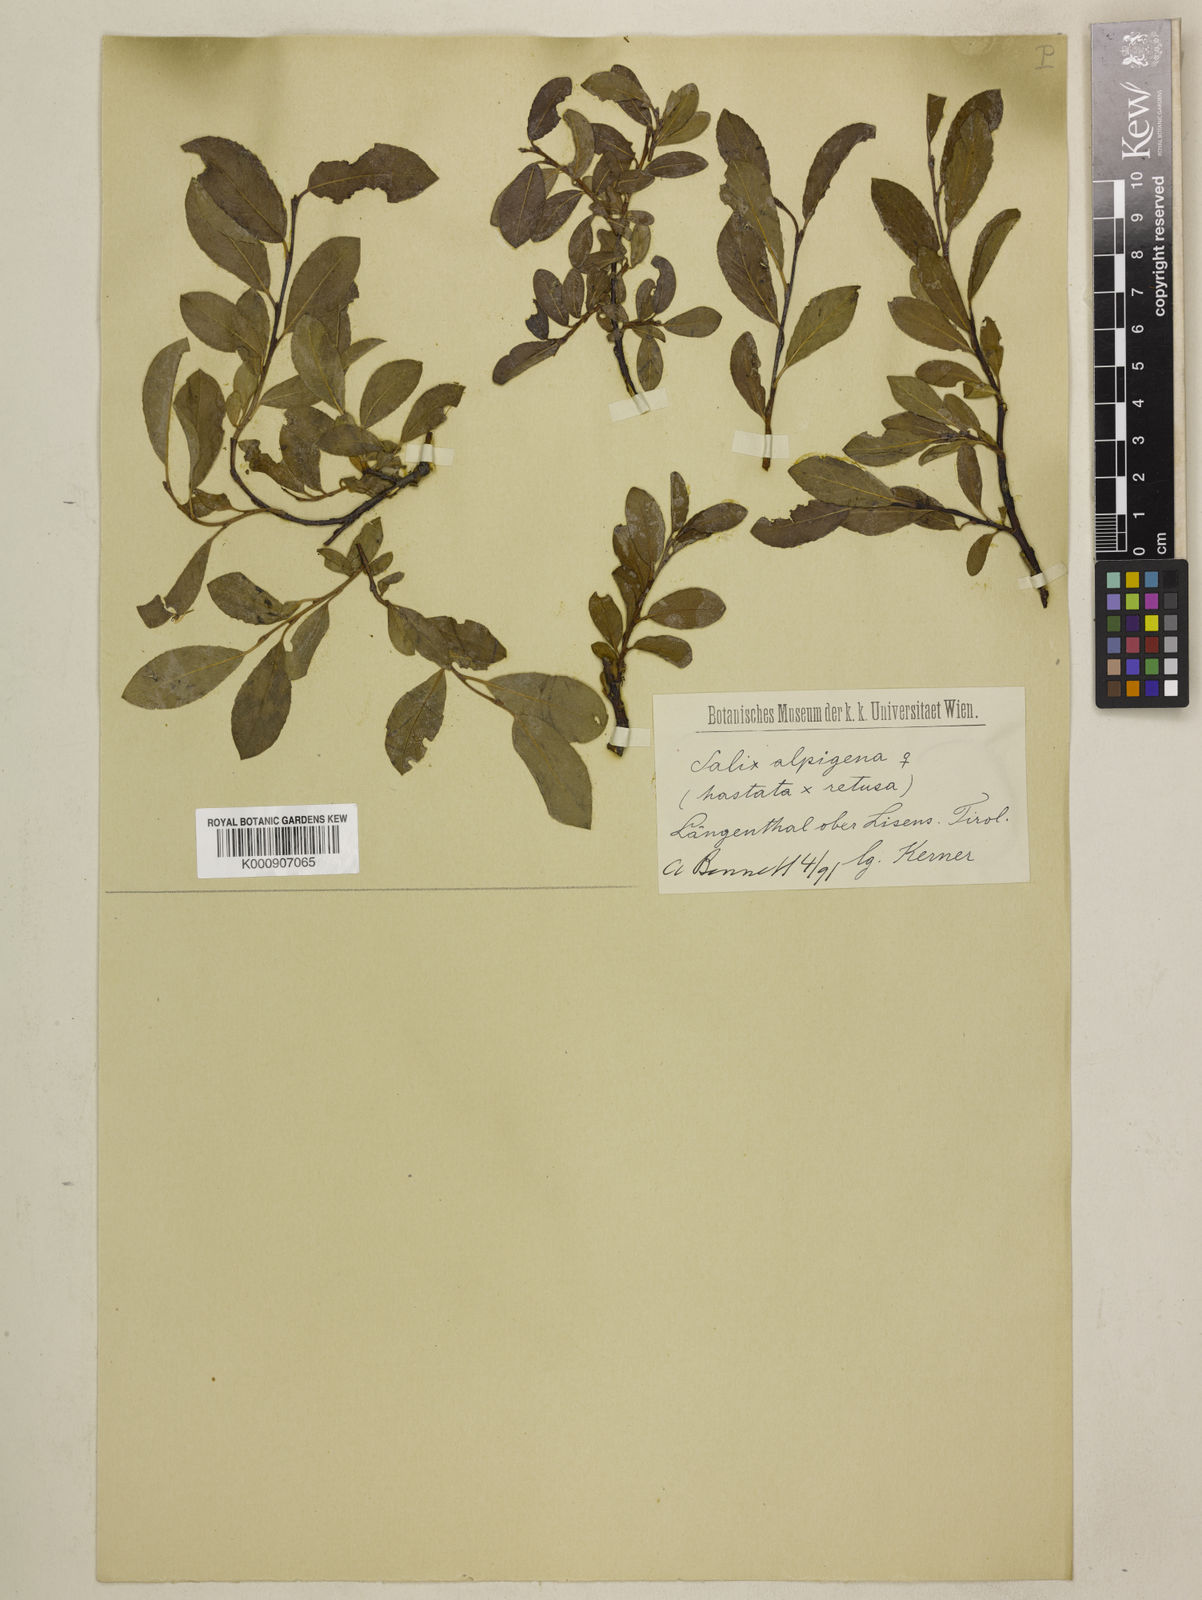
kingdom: Plantae
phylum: Tracheophyta
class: Magnoliopsida
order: Malpighiales
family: Salicaceae
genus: Salix
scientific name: Salix
